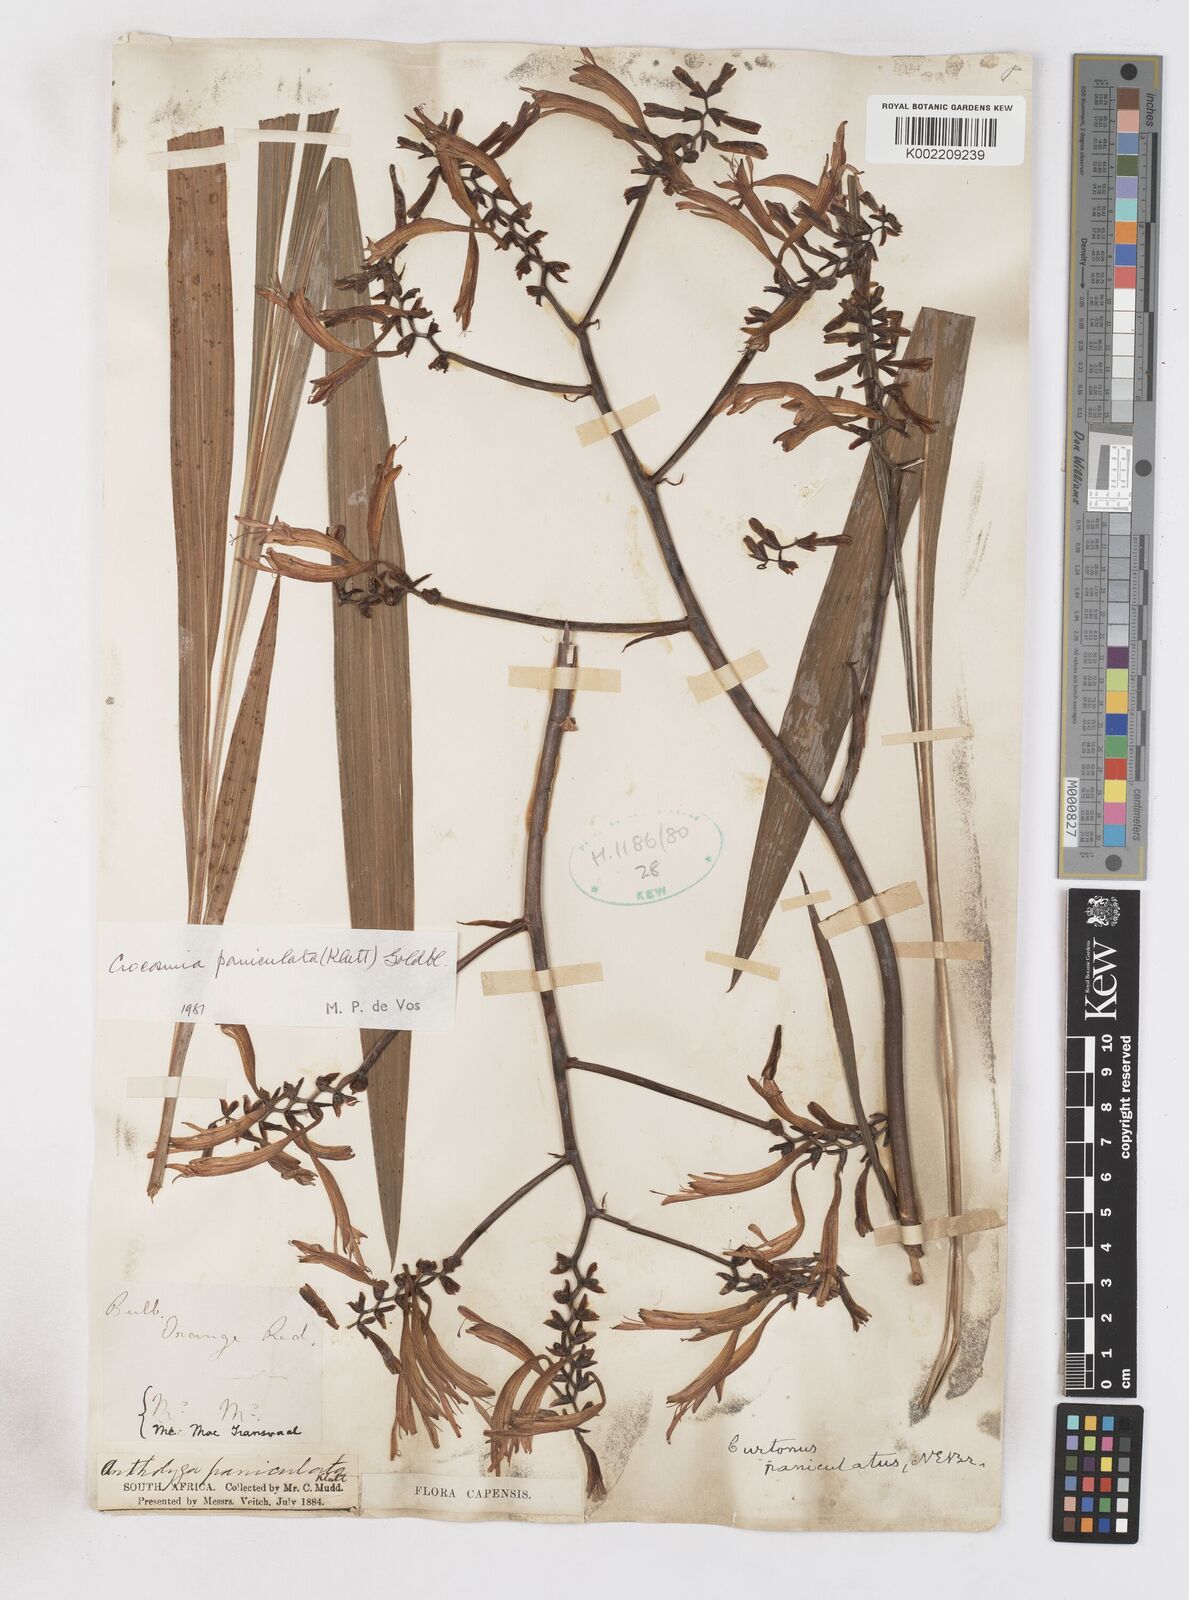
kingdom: Plantae
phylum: Tracheophyta
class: Liliopsida
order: Asparagales
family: Iridaceae
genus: Crocosmia
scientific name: Crocosmia paniculata
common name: Aunt eliza
